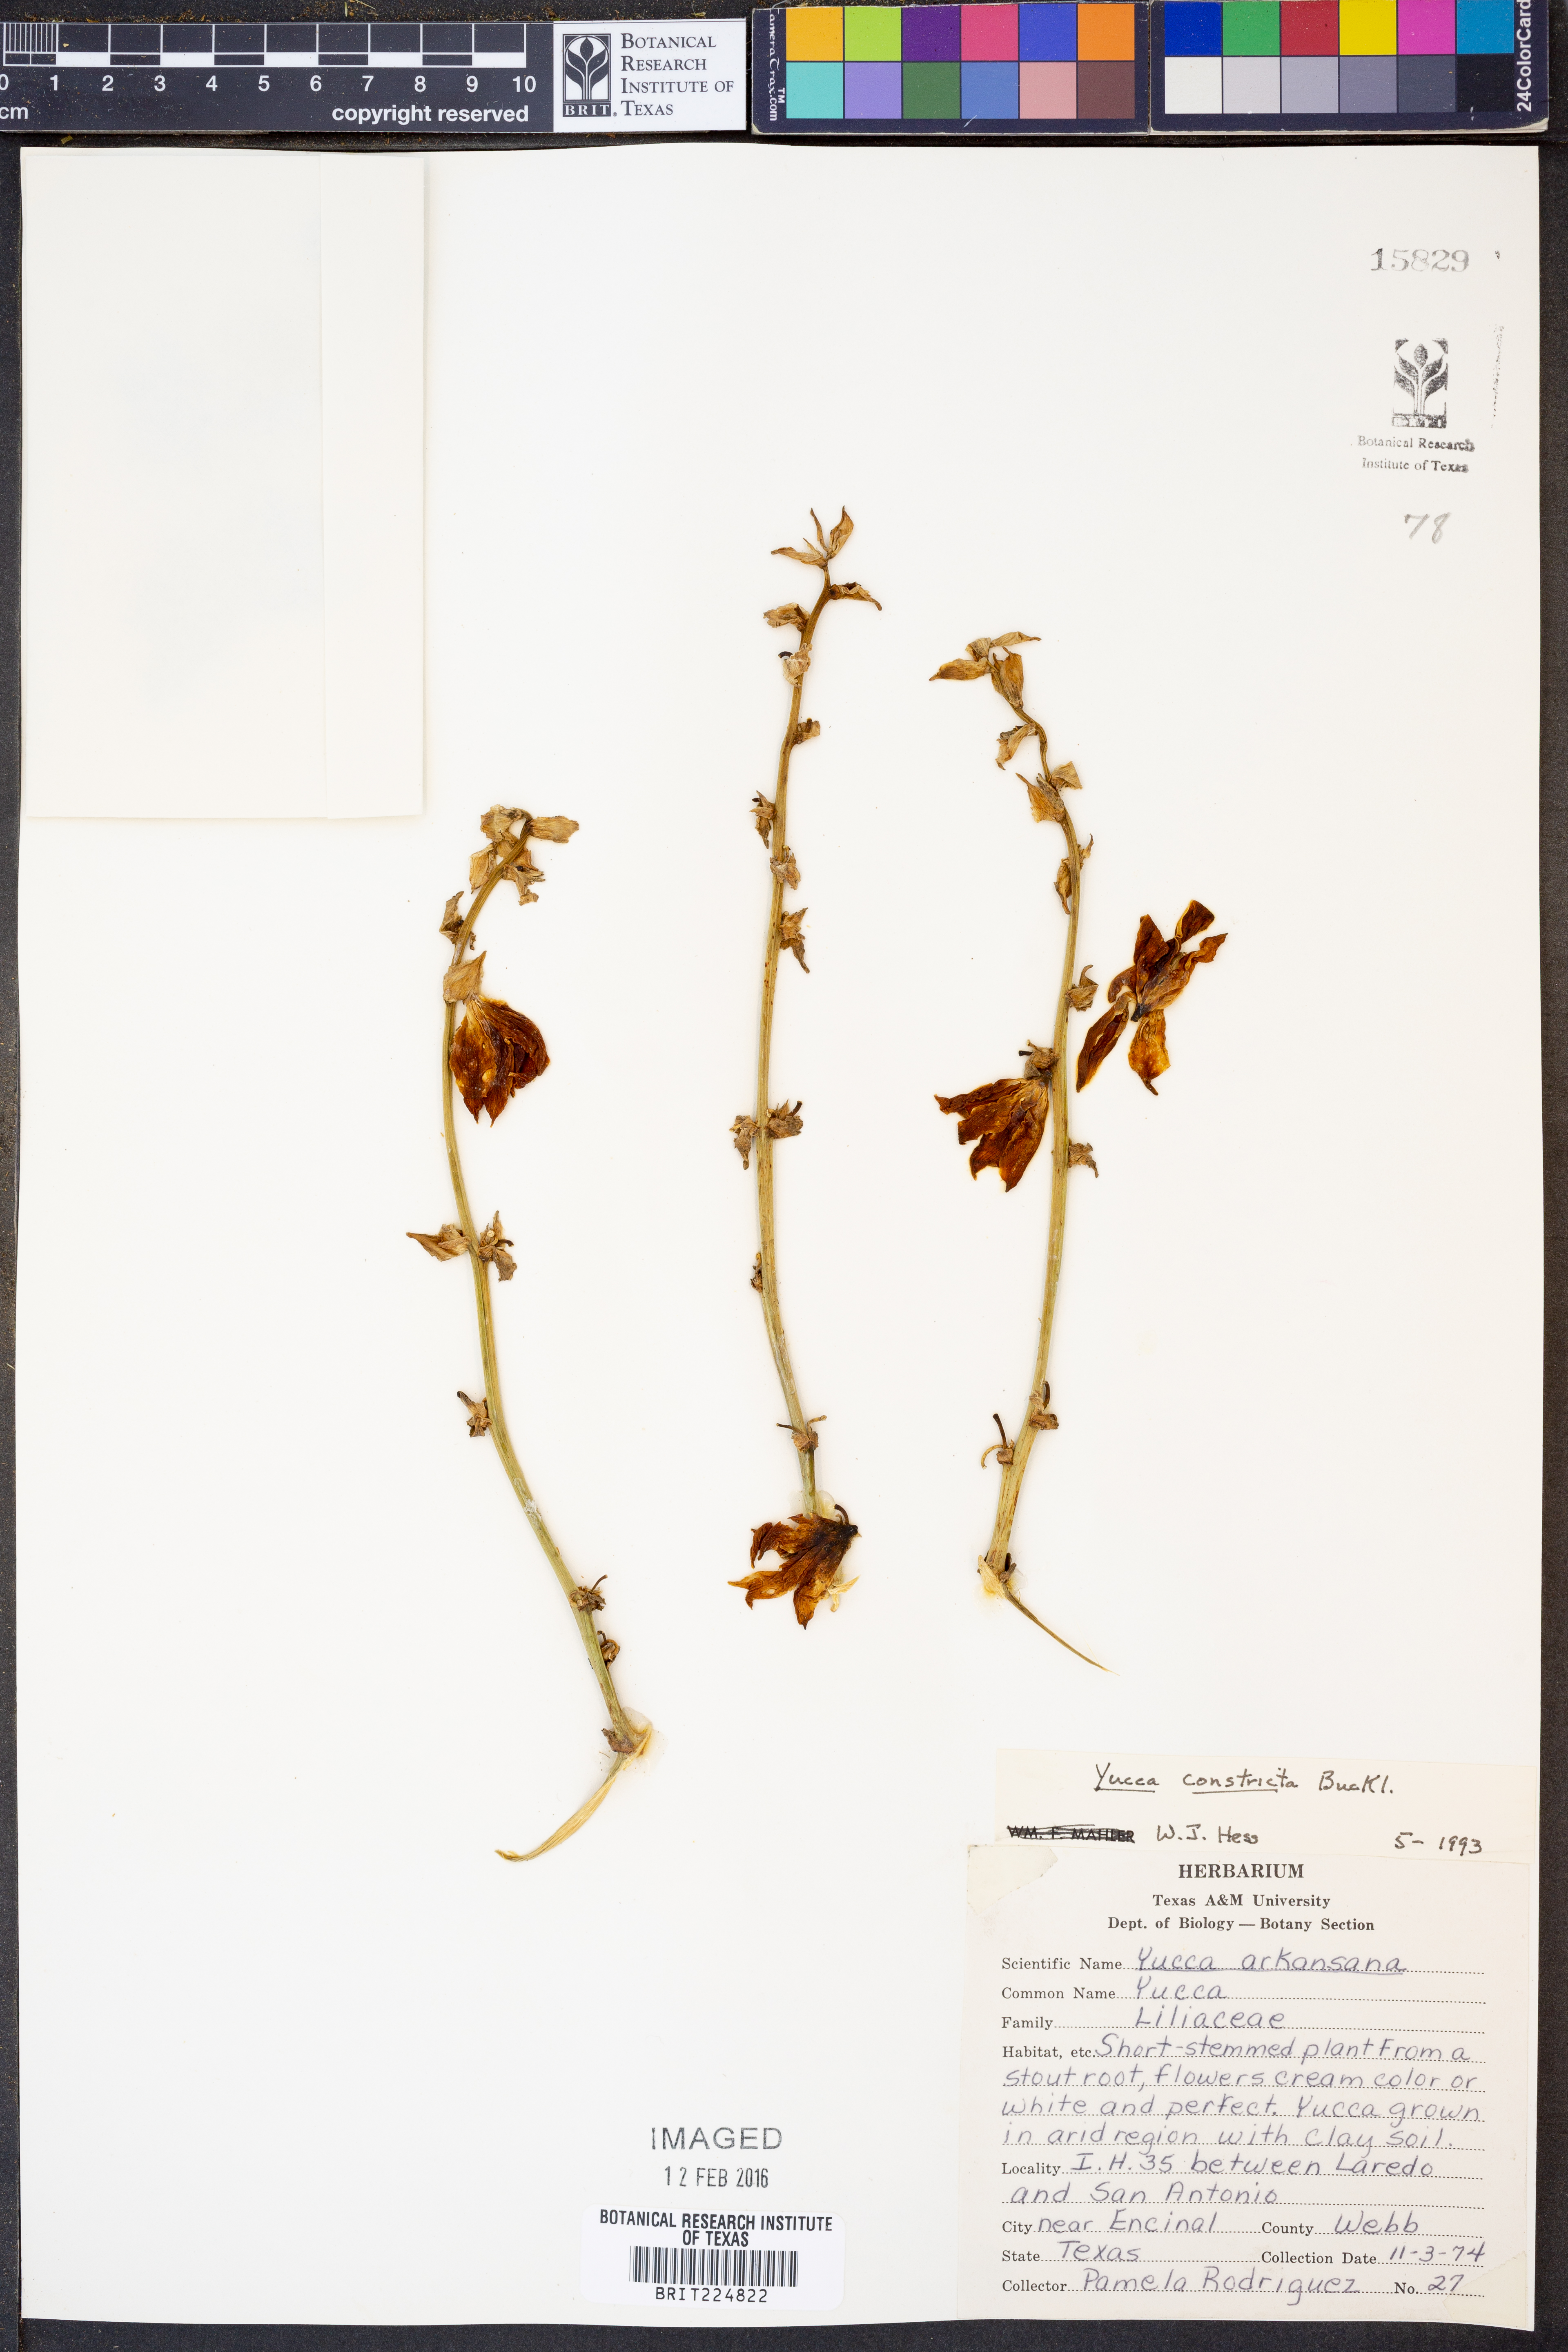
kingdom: Plantae
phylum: Tracheophyta
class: Liliopsida
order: Asparagales
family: Asparagaceae
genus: Yucca
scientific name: Yucca constricta
